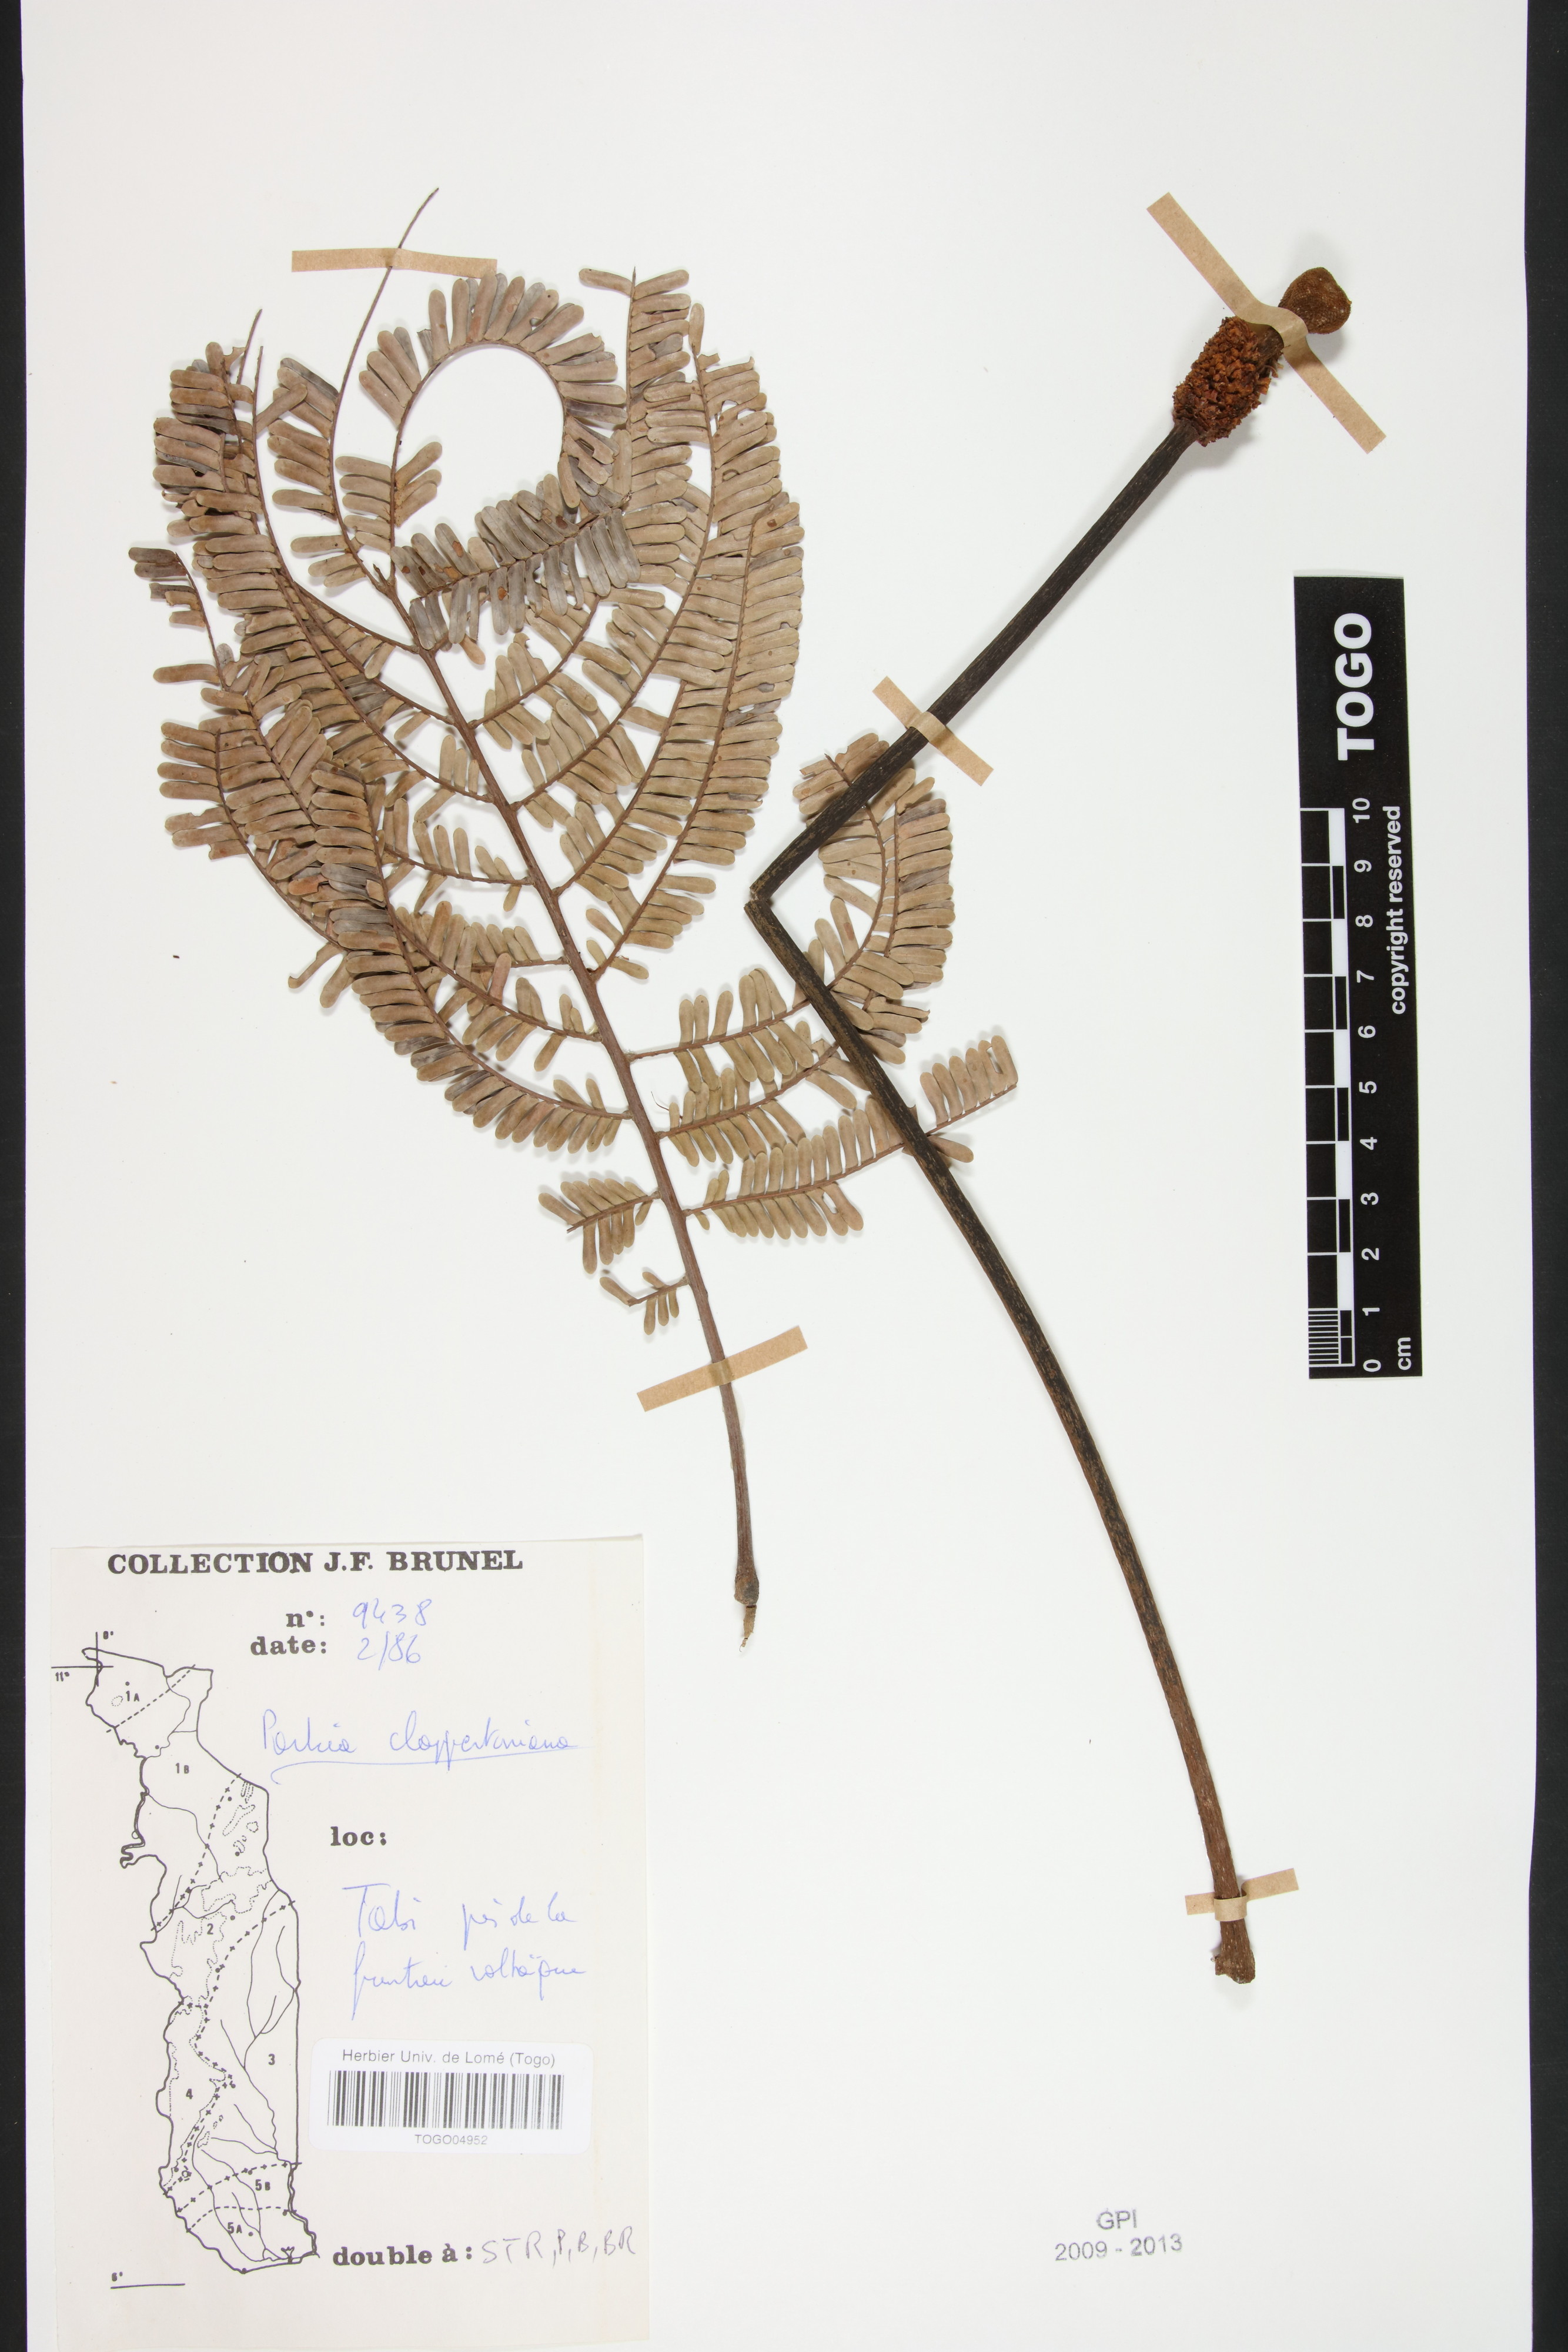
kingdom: Plantae
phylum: Tracheophyta
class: Magnoliopsida
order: Fabales
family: Fabaceae
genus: Parkia
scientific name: Parkia biglobosa
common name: African locust-bean
